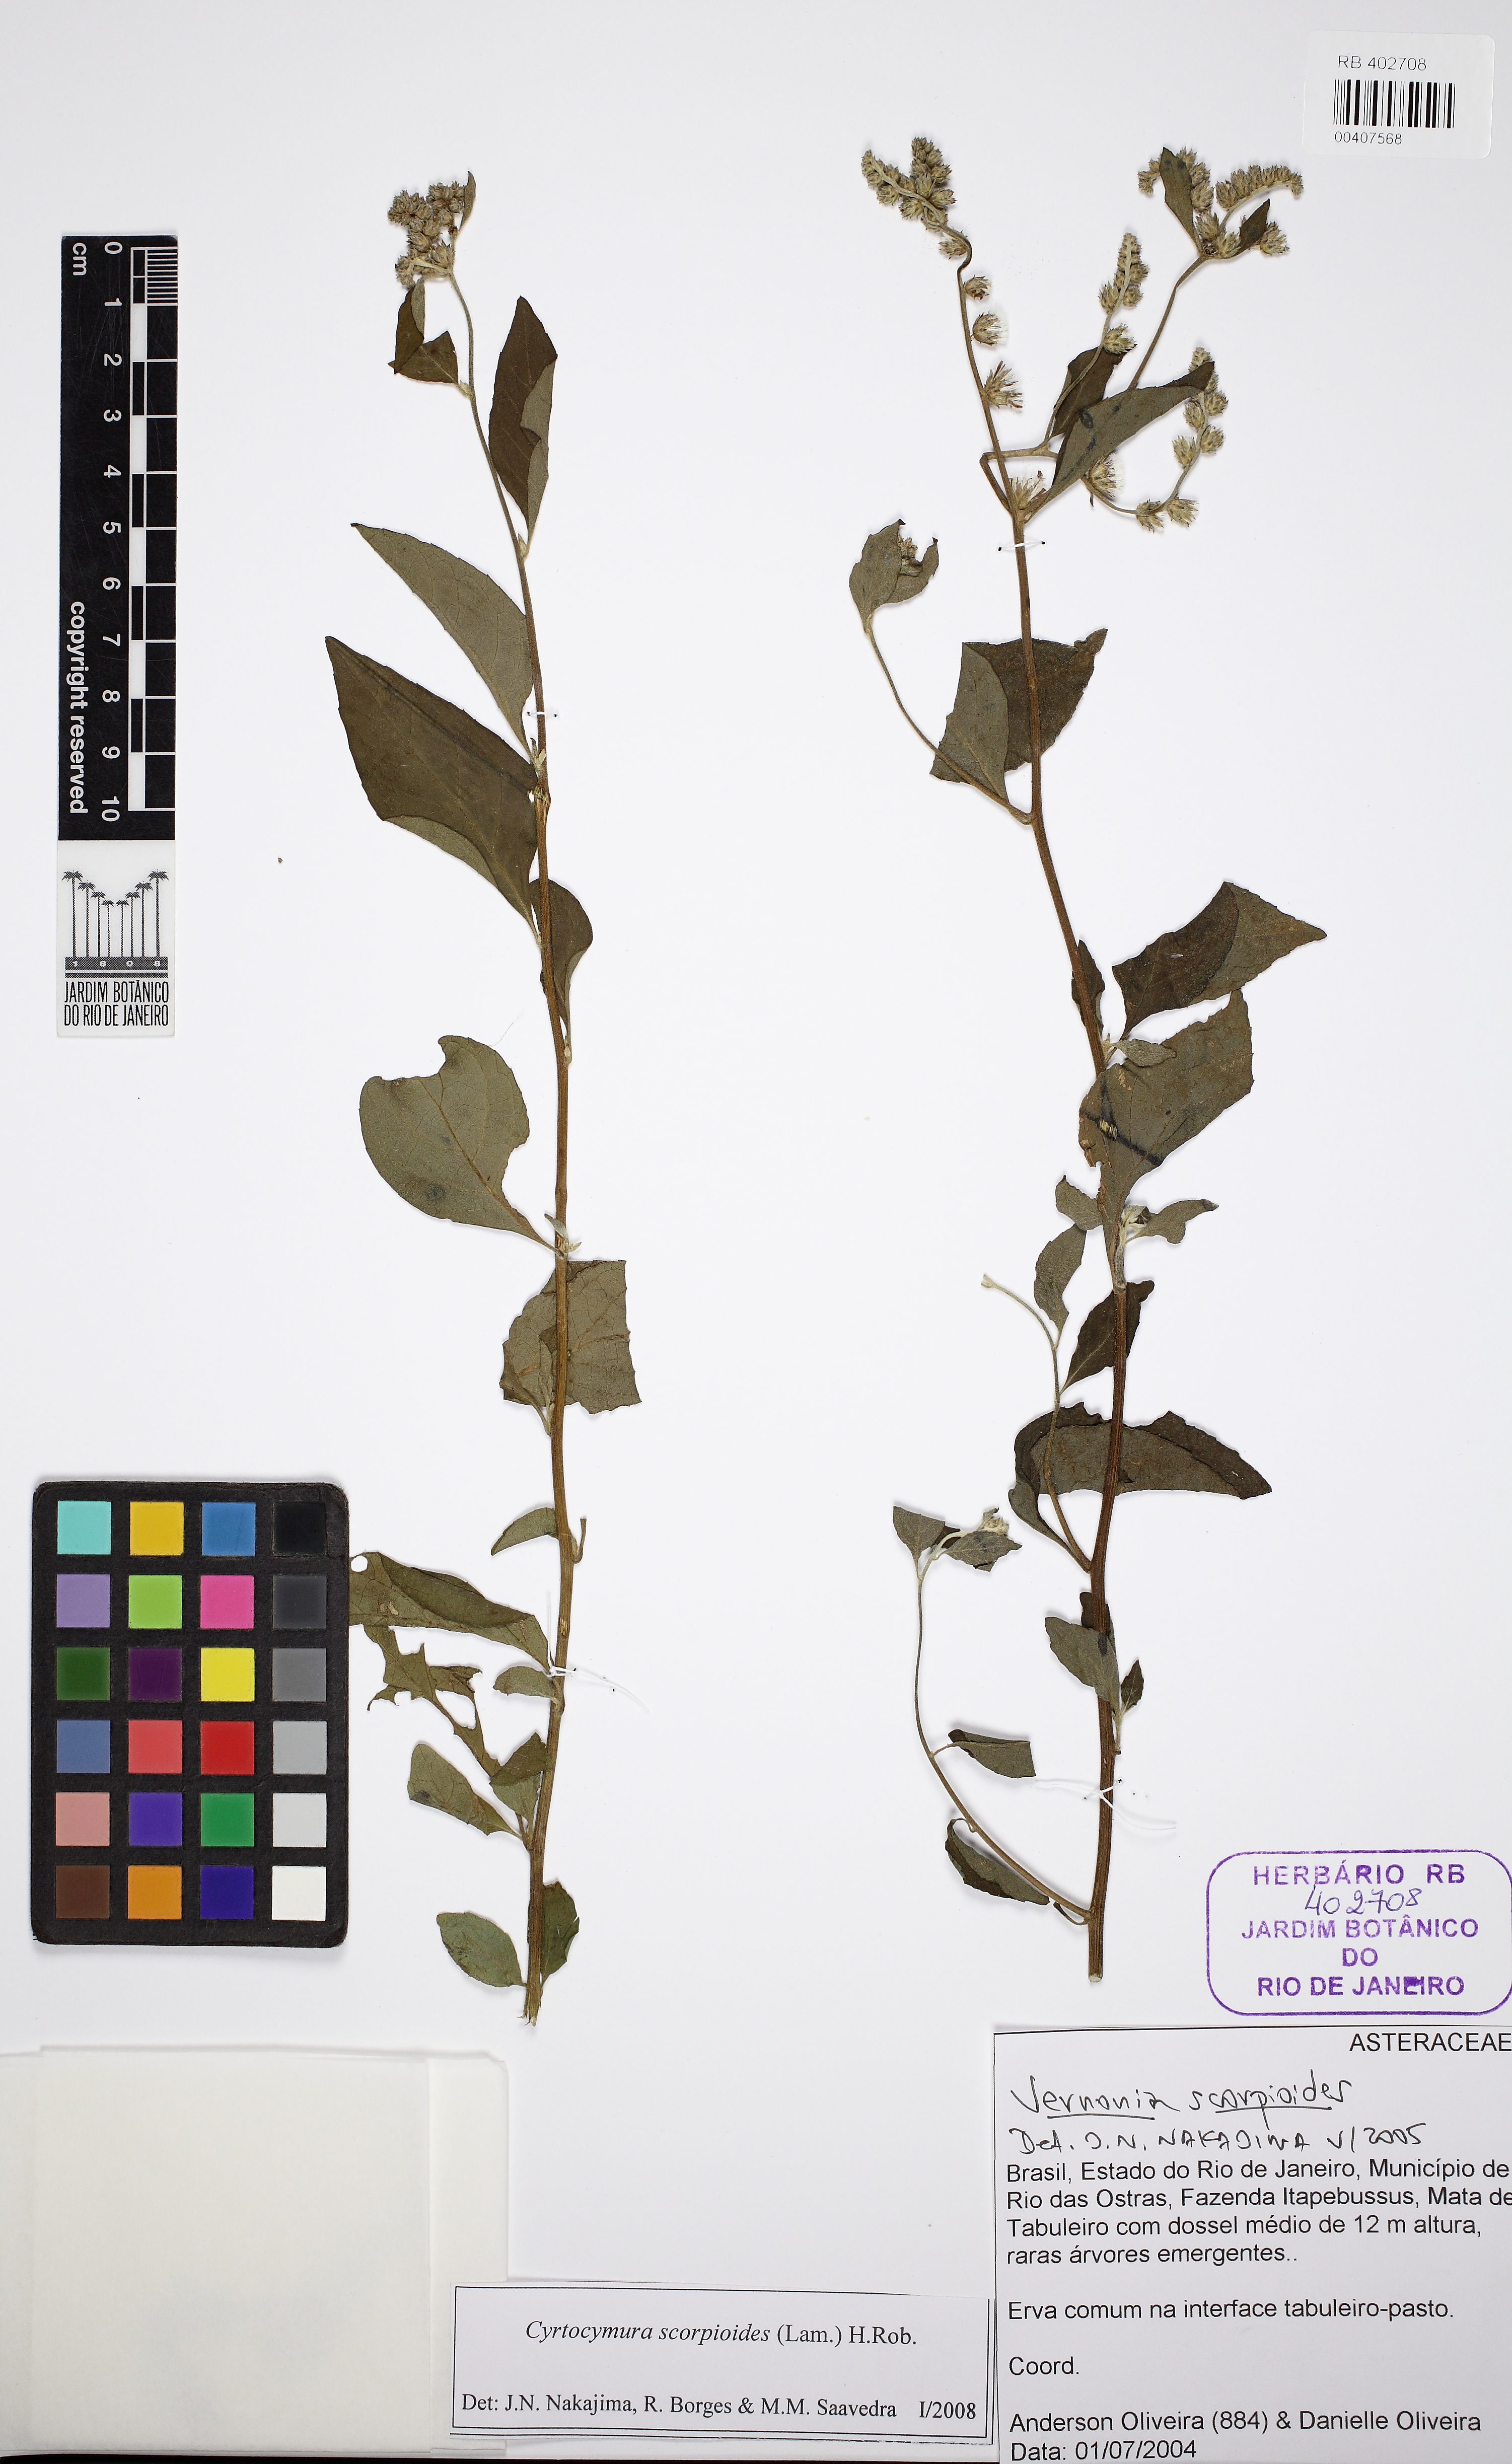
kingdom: Plantae
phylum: Tracheophyta
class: Magnoliopsida
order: Asterales
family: Asteraceae
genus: Cyrtocymura
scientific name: Cyrtocymura scorpioides
